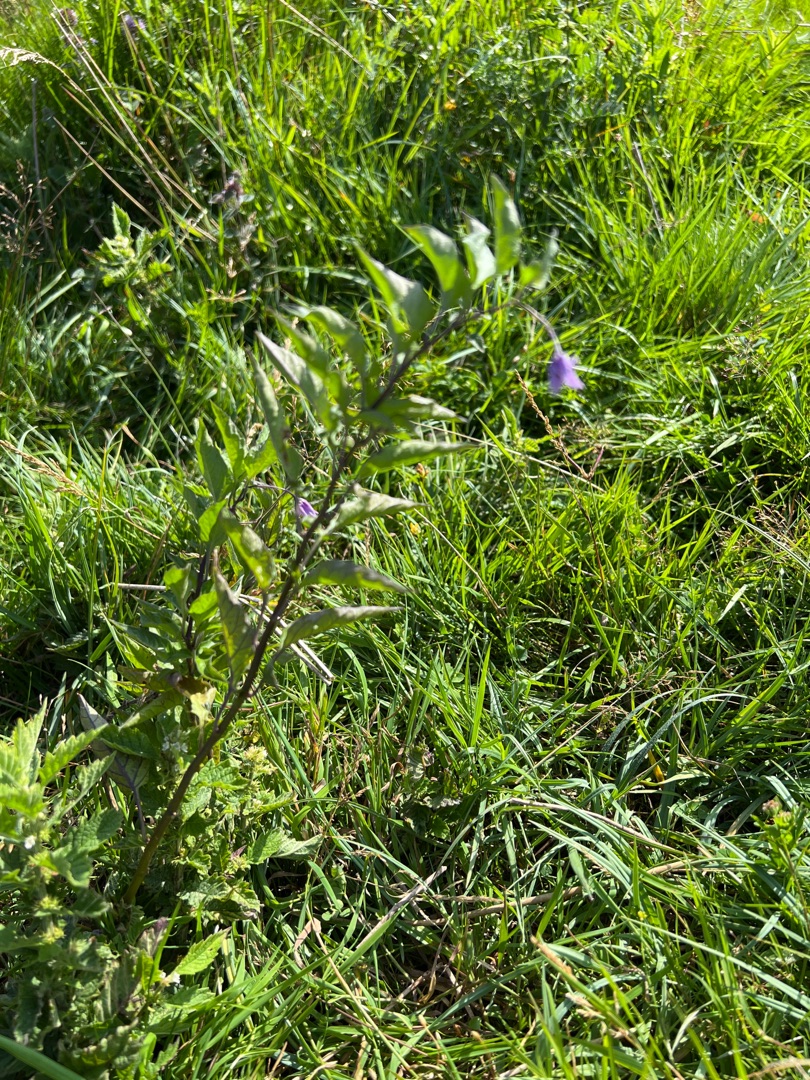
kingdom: Plantae
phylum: Tracheophyta
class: Magnoliopsida
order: Solanales
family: Solanaceae
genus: Solanum
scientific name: Solanum dulcamara
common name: Bittersød natskygge
